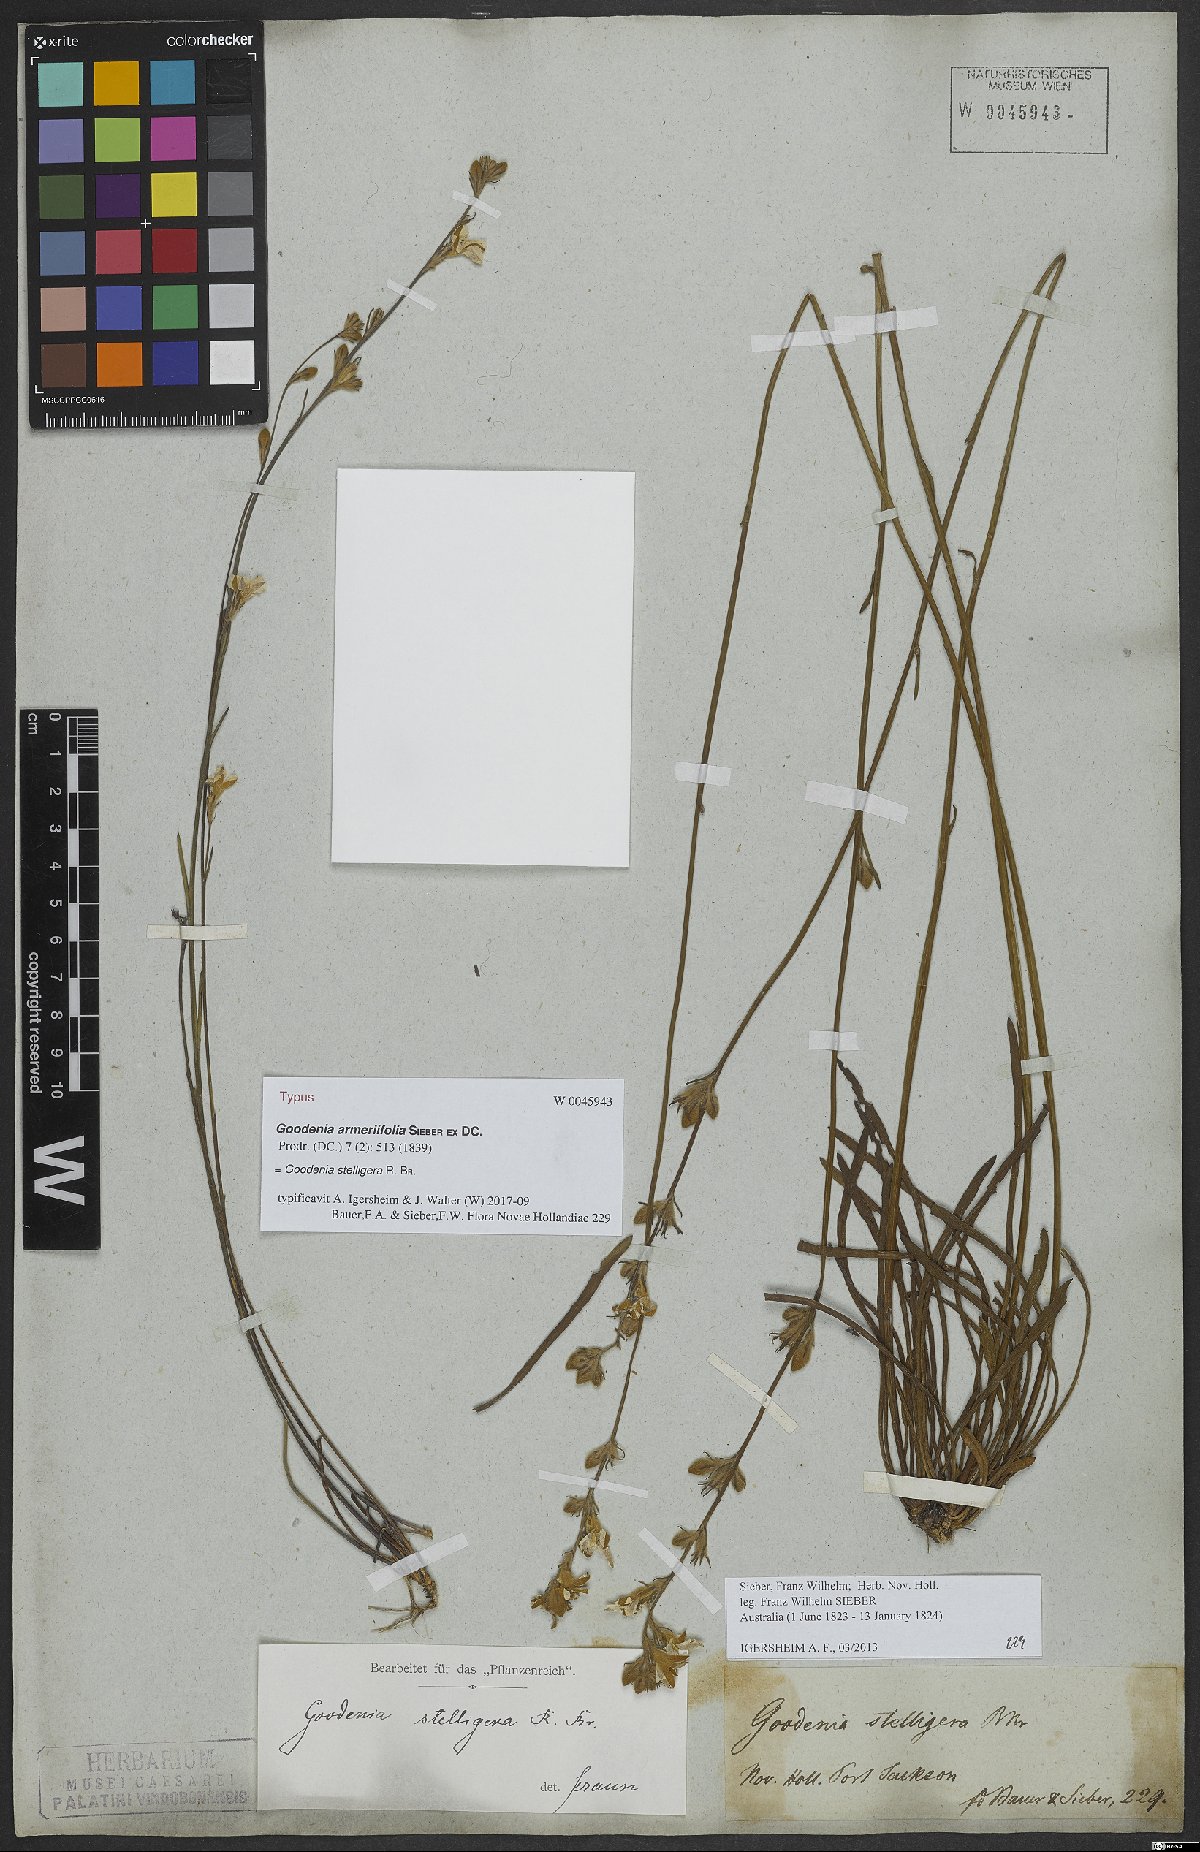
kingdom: Plantae
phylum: Tracheophyta
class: Magnoliopsida
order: Asterales
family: Goodeniaceae
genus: Goodenia
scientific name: Goodenia stelligera
